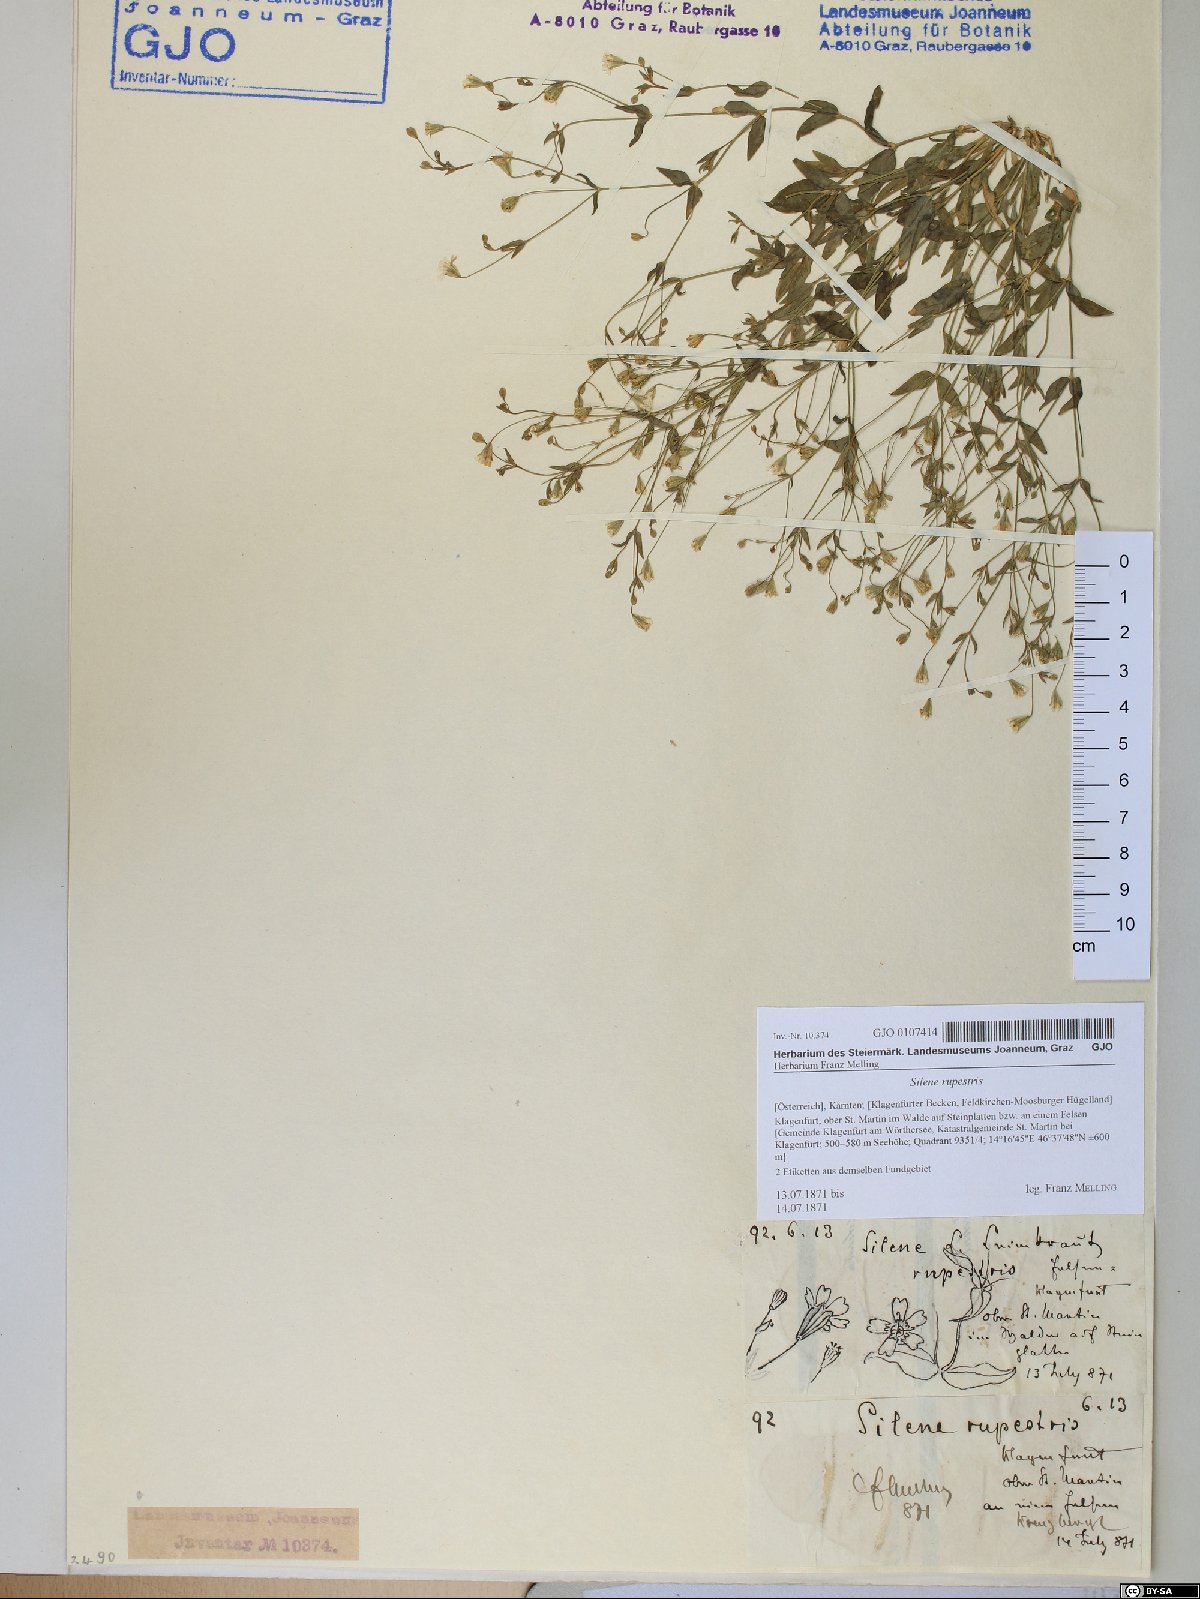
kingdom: Plantae
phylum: Tracheophyta
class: Magnoliopsida
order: Caryophyllales
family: Caryophyllaceae
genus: Atocion
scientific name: Atocion rupestre
